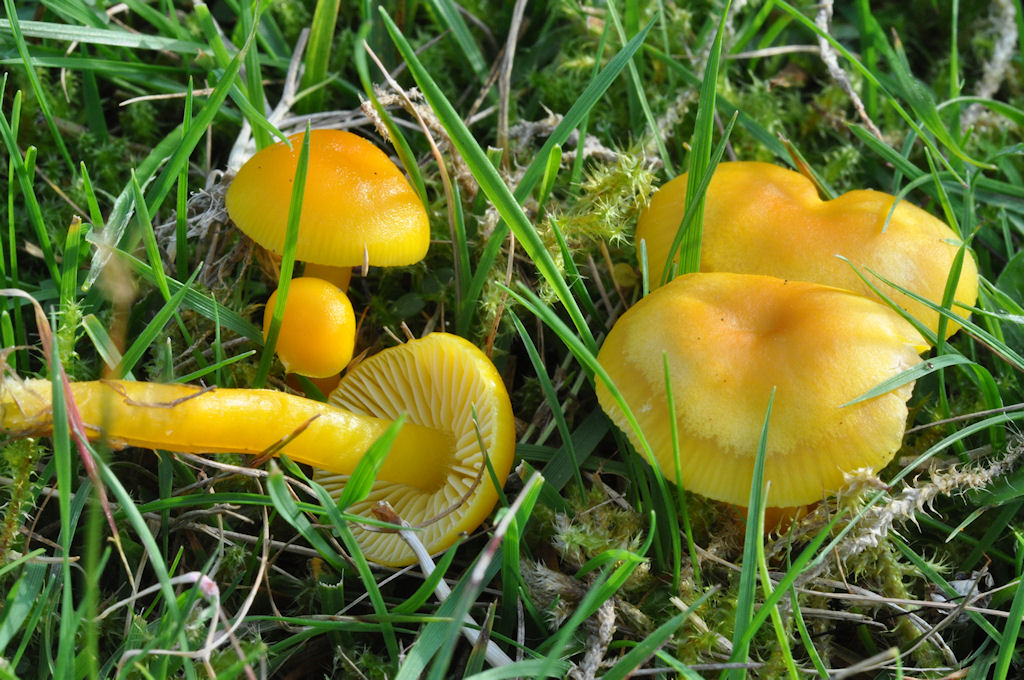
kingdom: Fungi
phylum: Basidiomycota
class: Agaricomycetes
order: Agaricales
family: Hygrophoraceae
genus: Hygrocybe
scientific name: Hygrocybe chlorophana
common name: gul vokshat
